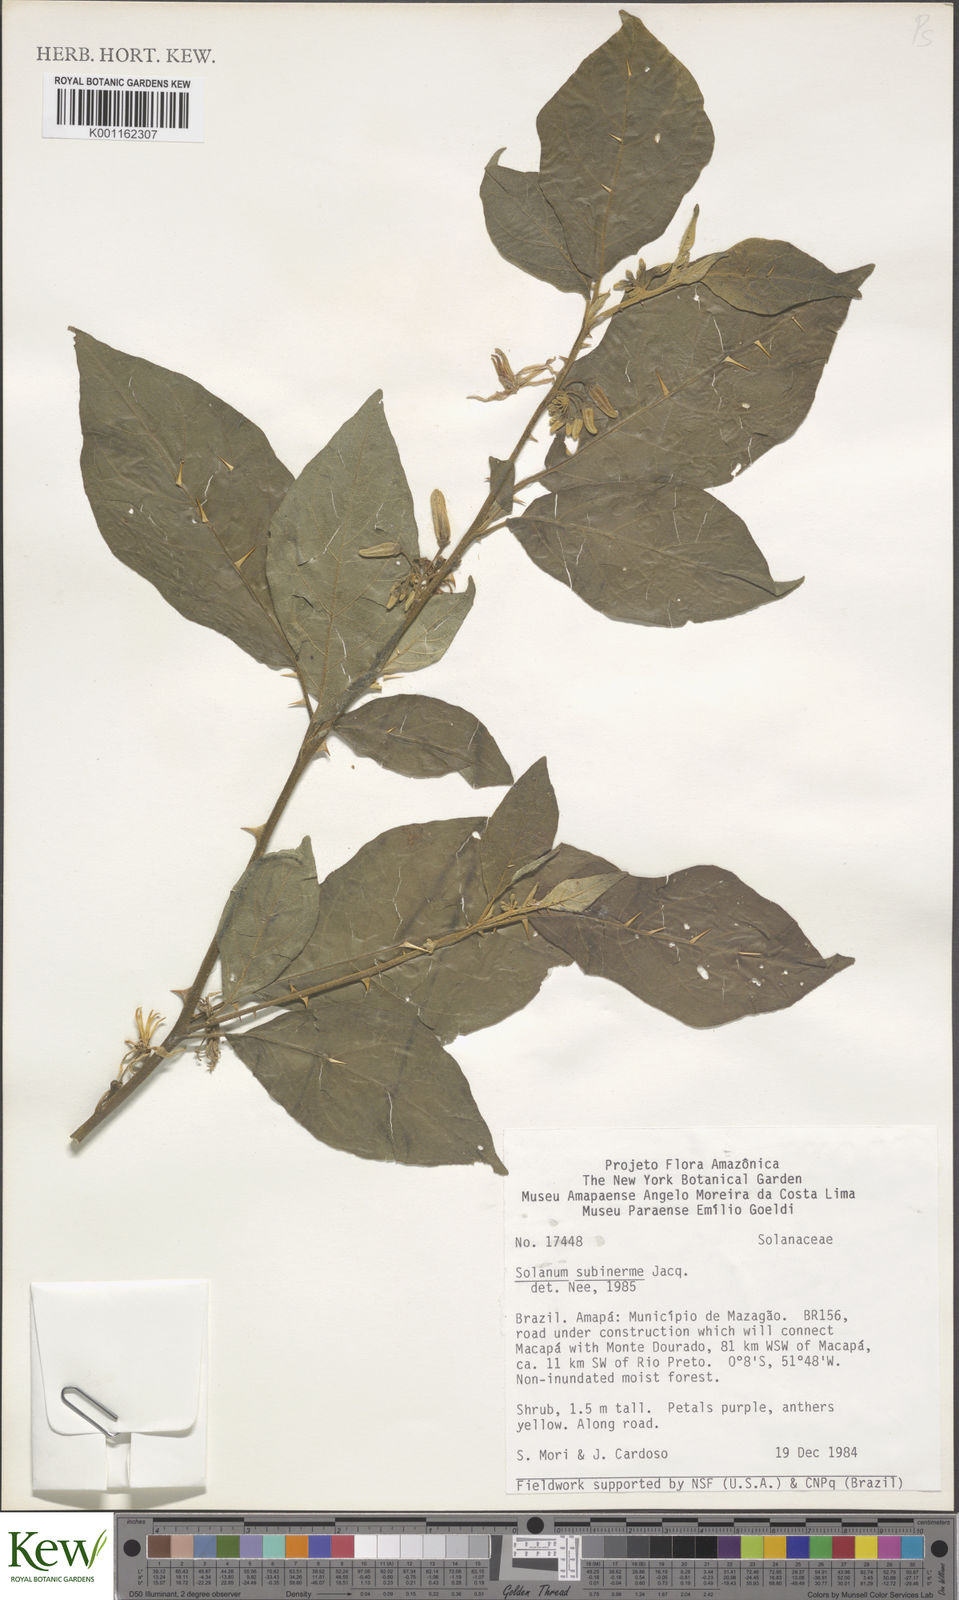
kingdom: Plantae
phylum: Tracheophyta
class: Magnoliopsida
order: Solanales
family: Solanaceae
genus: Solanum
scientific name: Solanum subinerme
